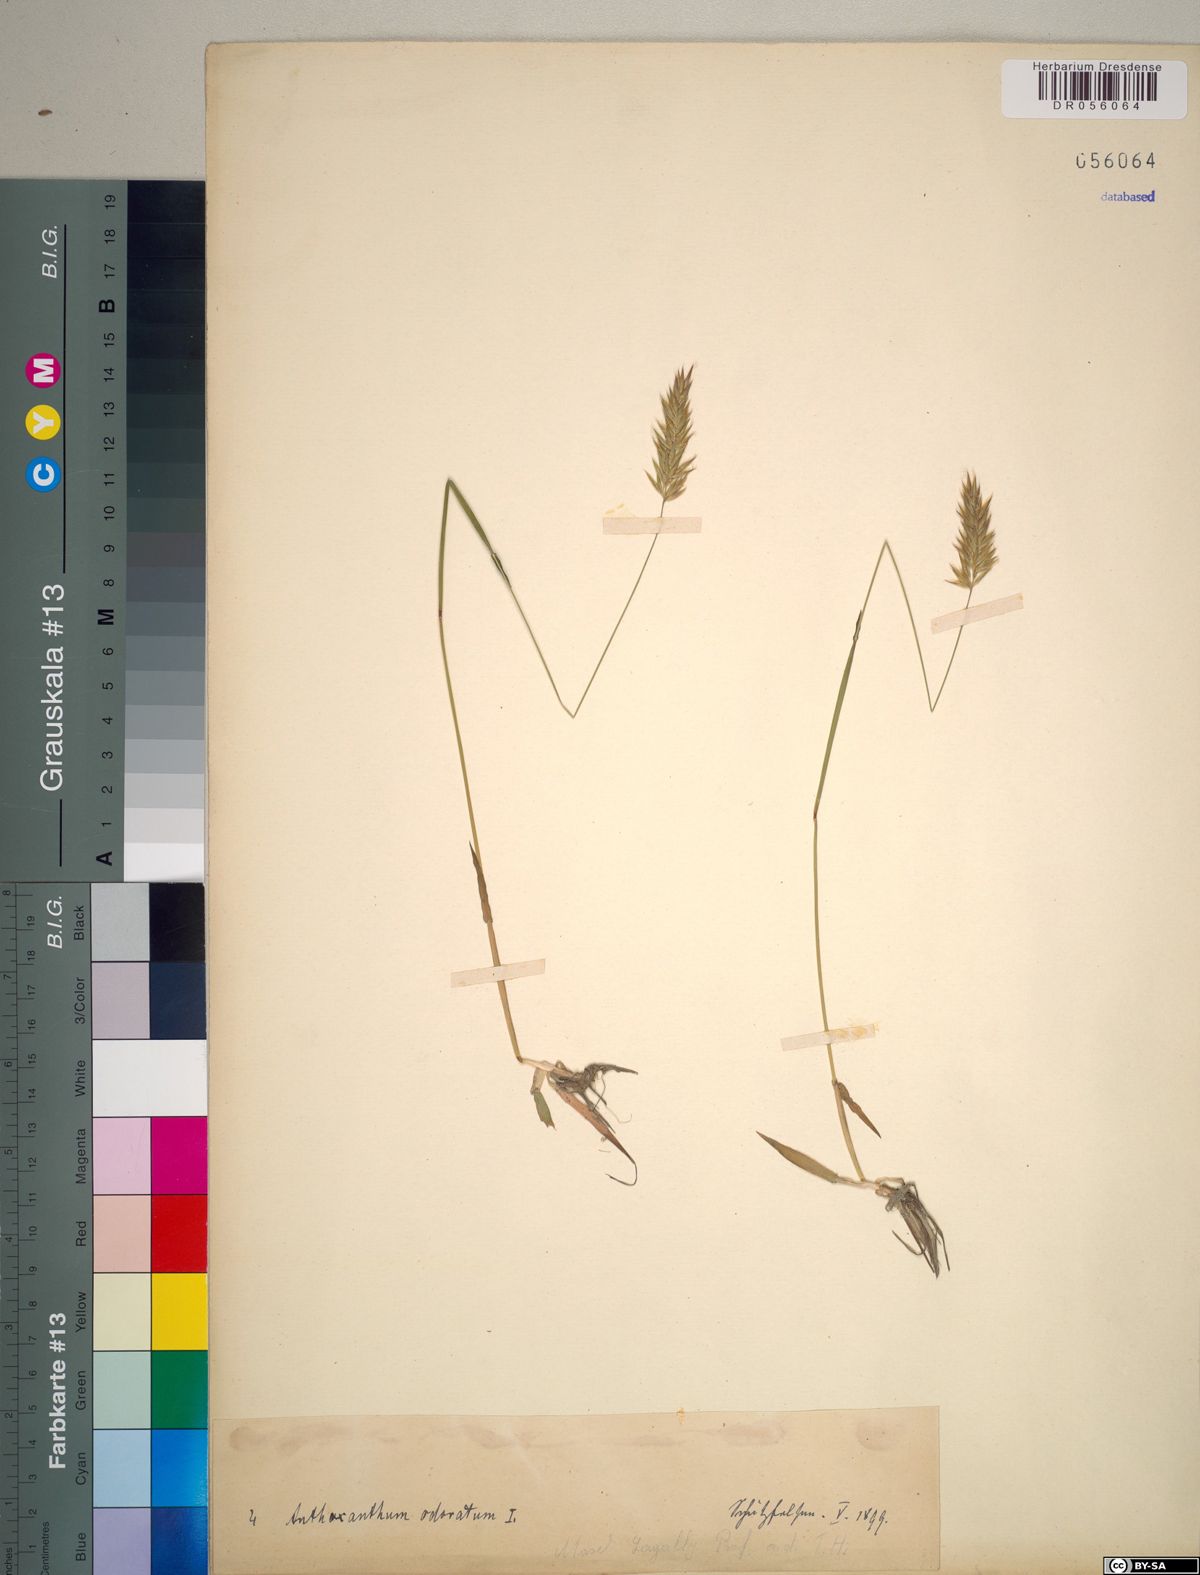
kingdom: Plantae
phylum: Tracheophyta
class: Liliopsida
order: Poales
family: Poaceae
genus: Anthoxanthum
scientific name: Anthoxanthum odoratum
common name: Sweet vernalgrass
